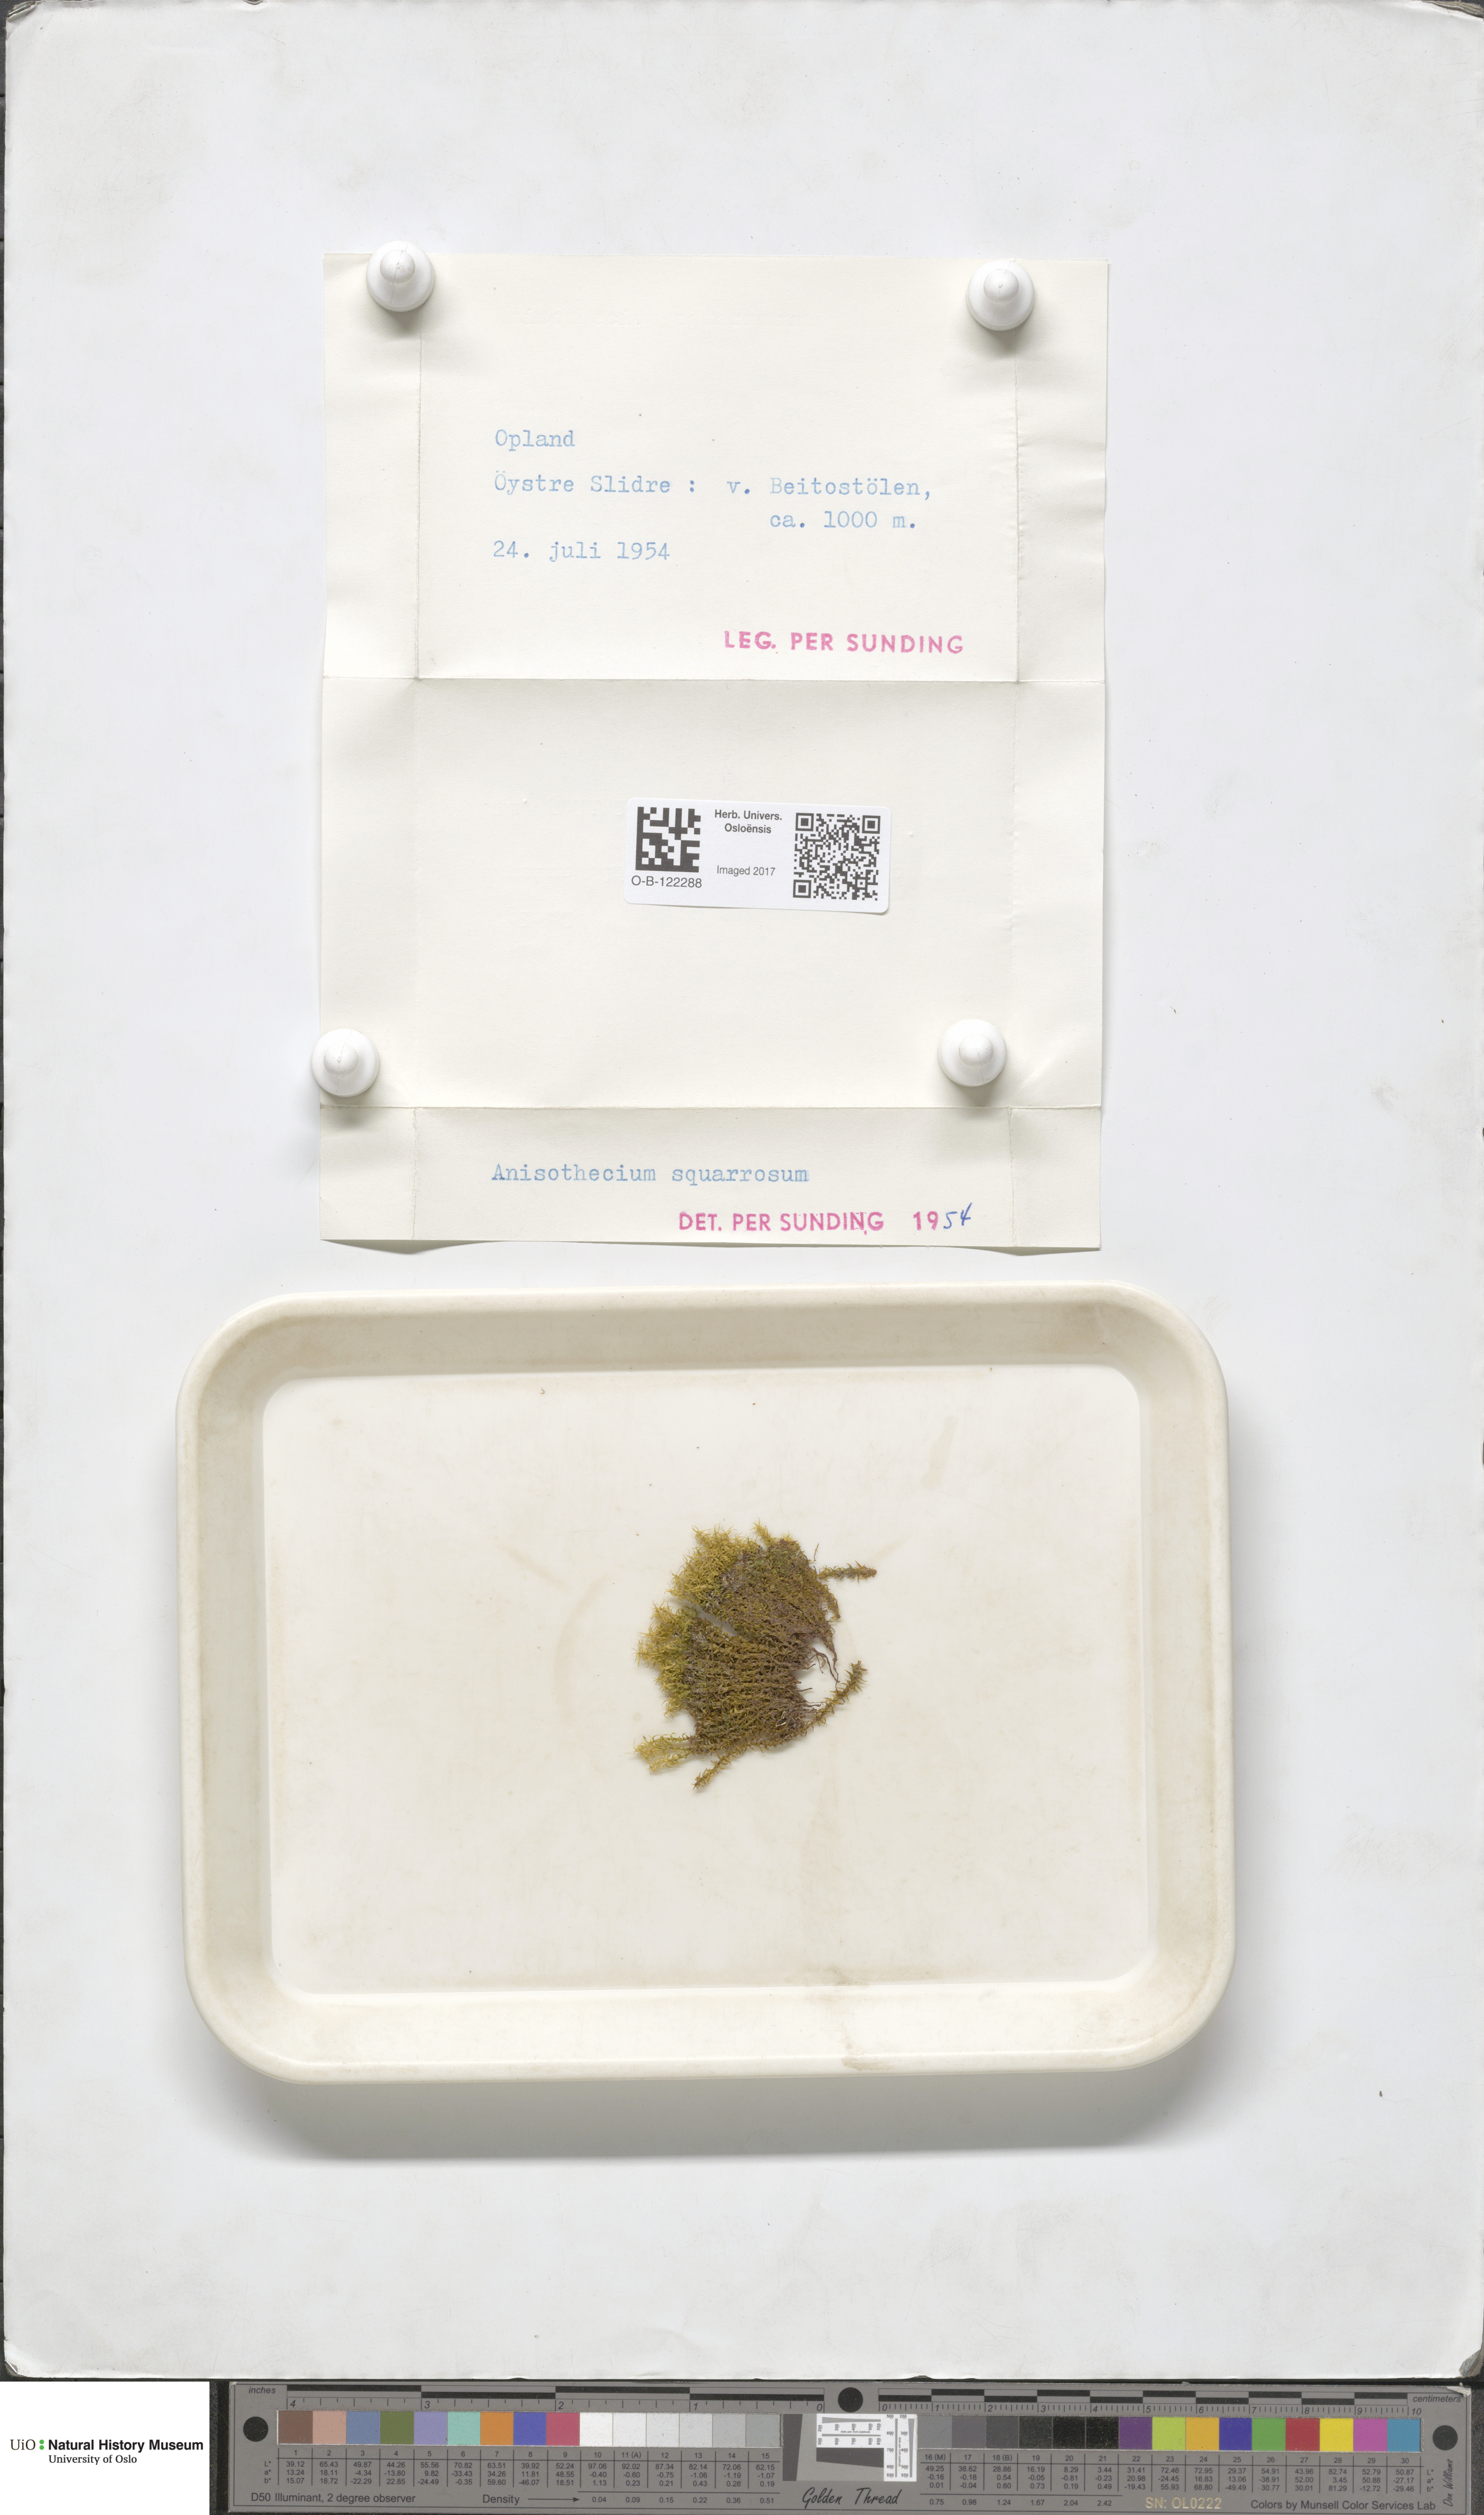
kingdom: Plantae
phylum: Bryophyta
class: Bryopsida
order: Dicranales
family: Aongstroemiaceae
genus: Diobelonella
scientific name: Diobelonella palustris
